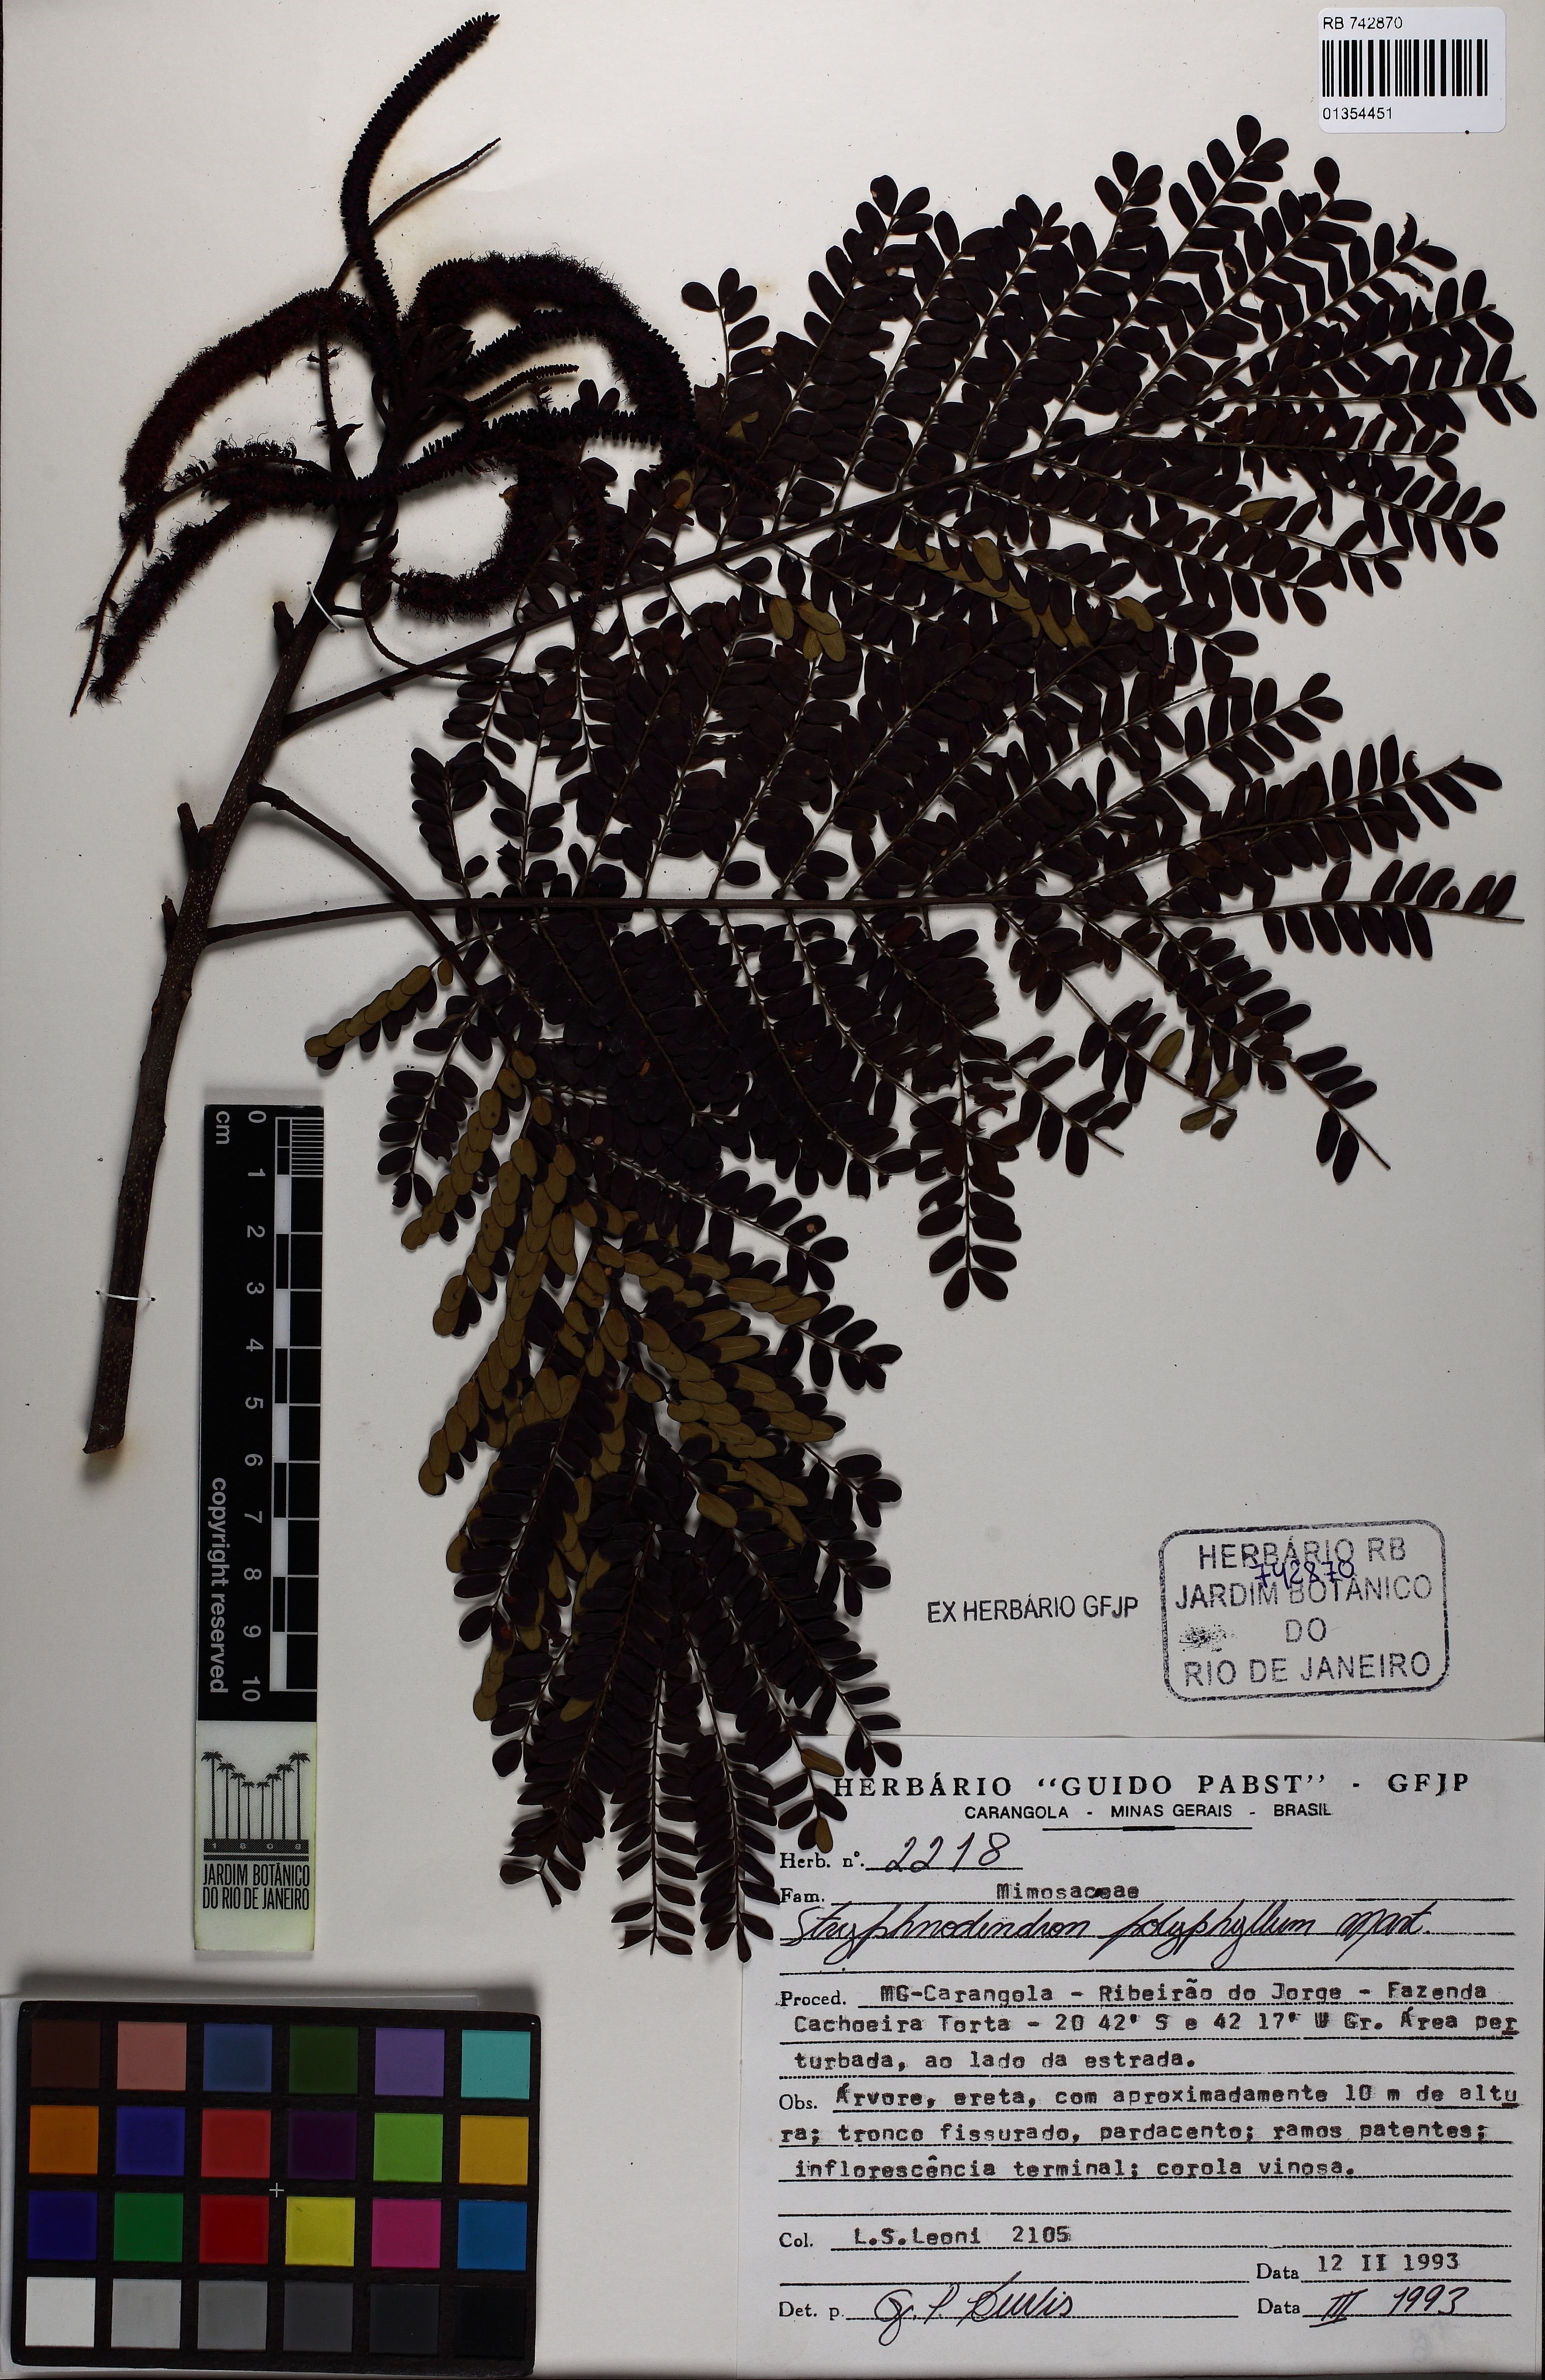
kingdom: Plantae
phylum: Tracheophyta
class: Magnoliopsida
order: Fabales
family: Fabaceae
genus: Stryphnodendron
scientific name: Stryphnodendron polyphyllum
